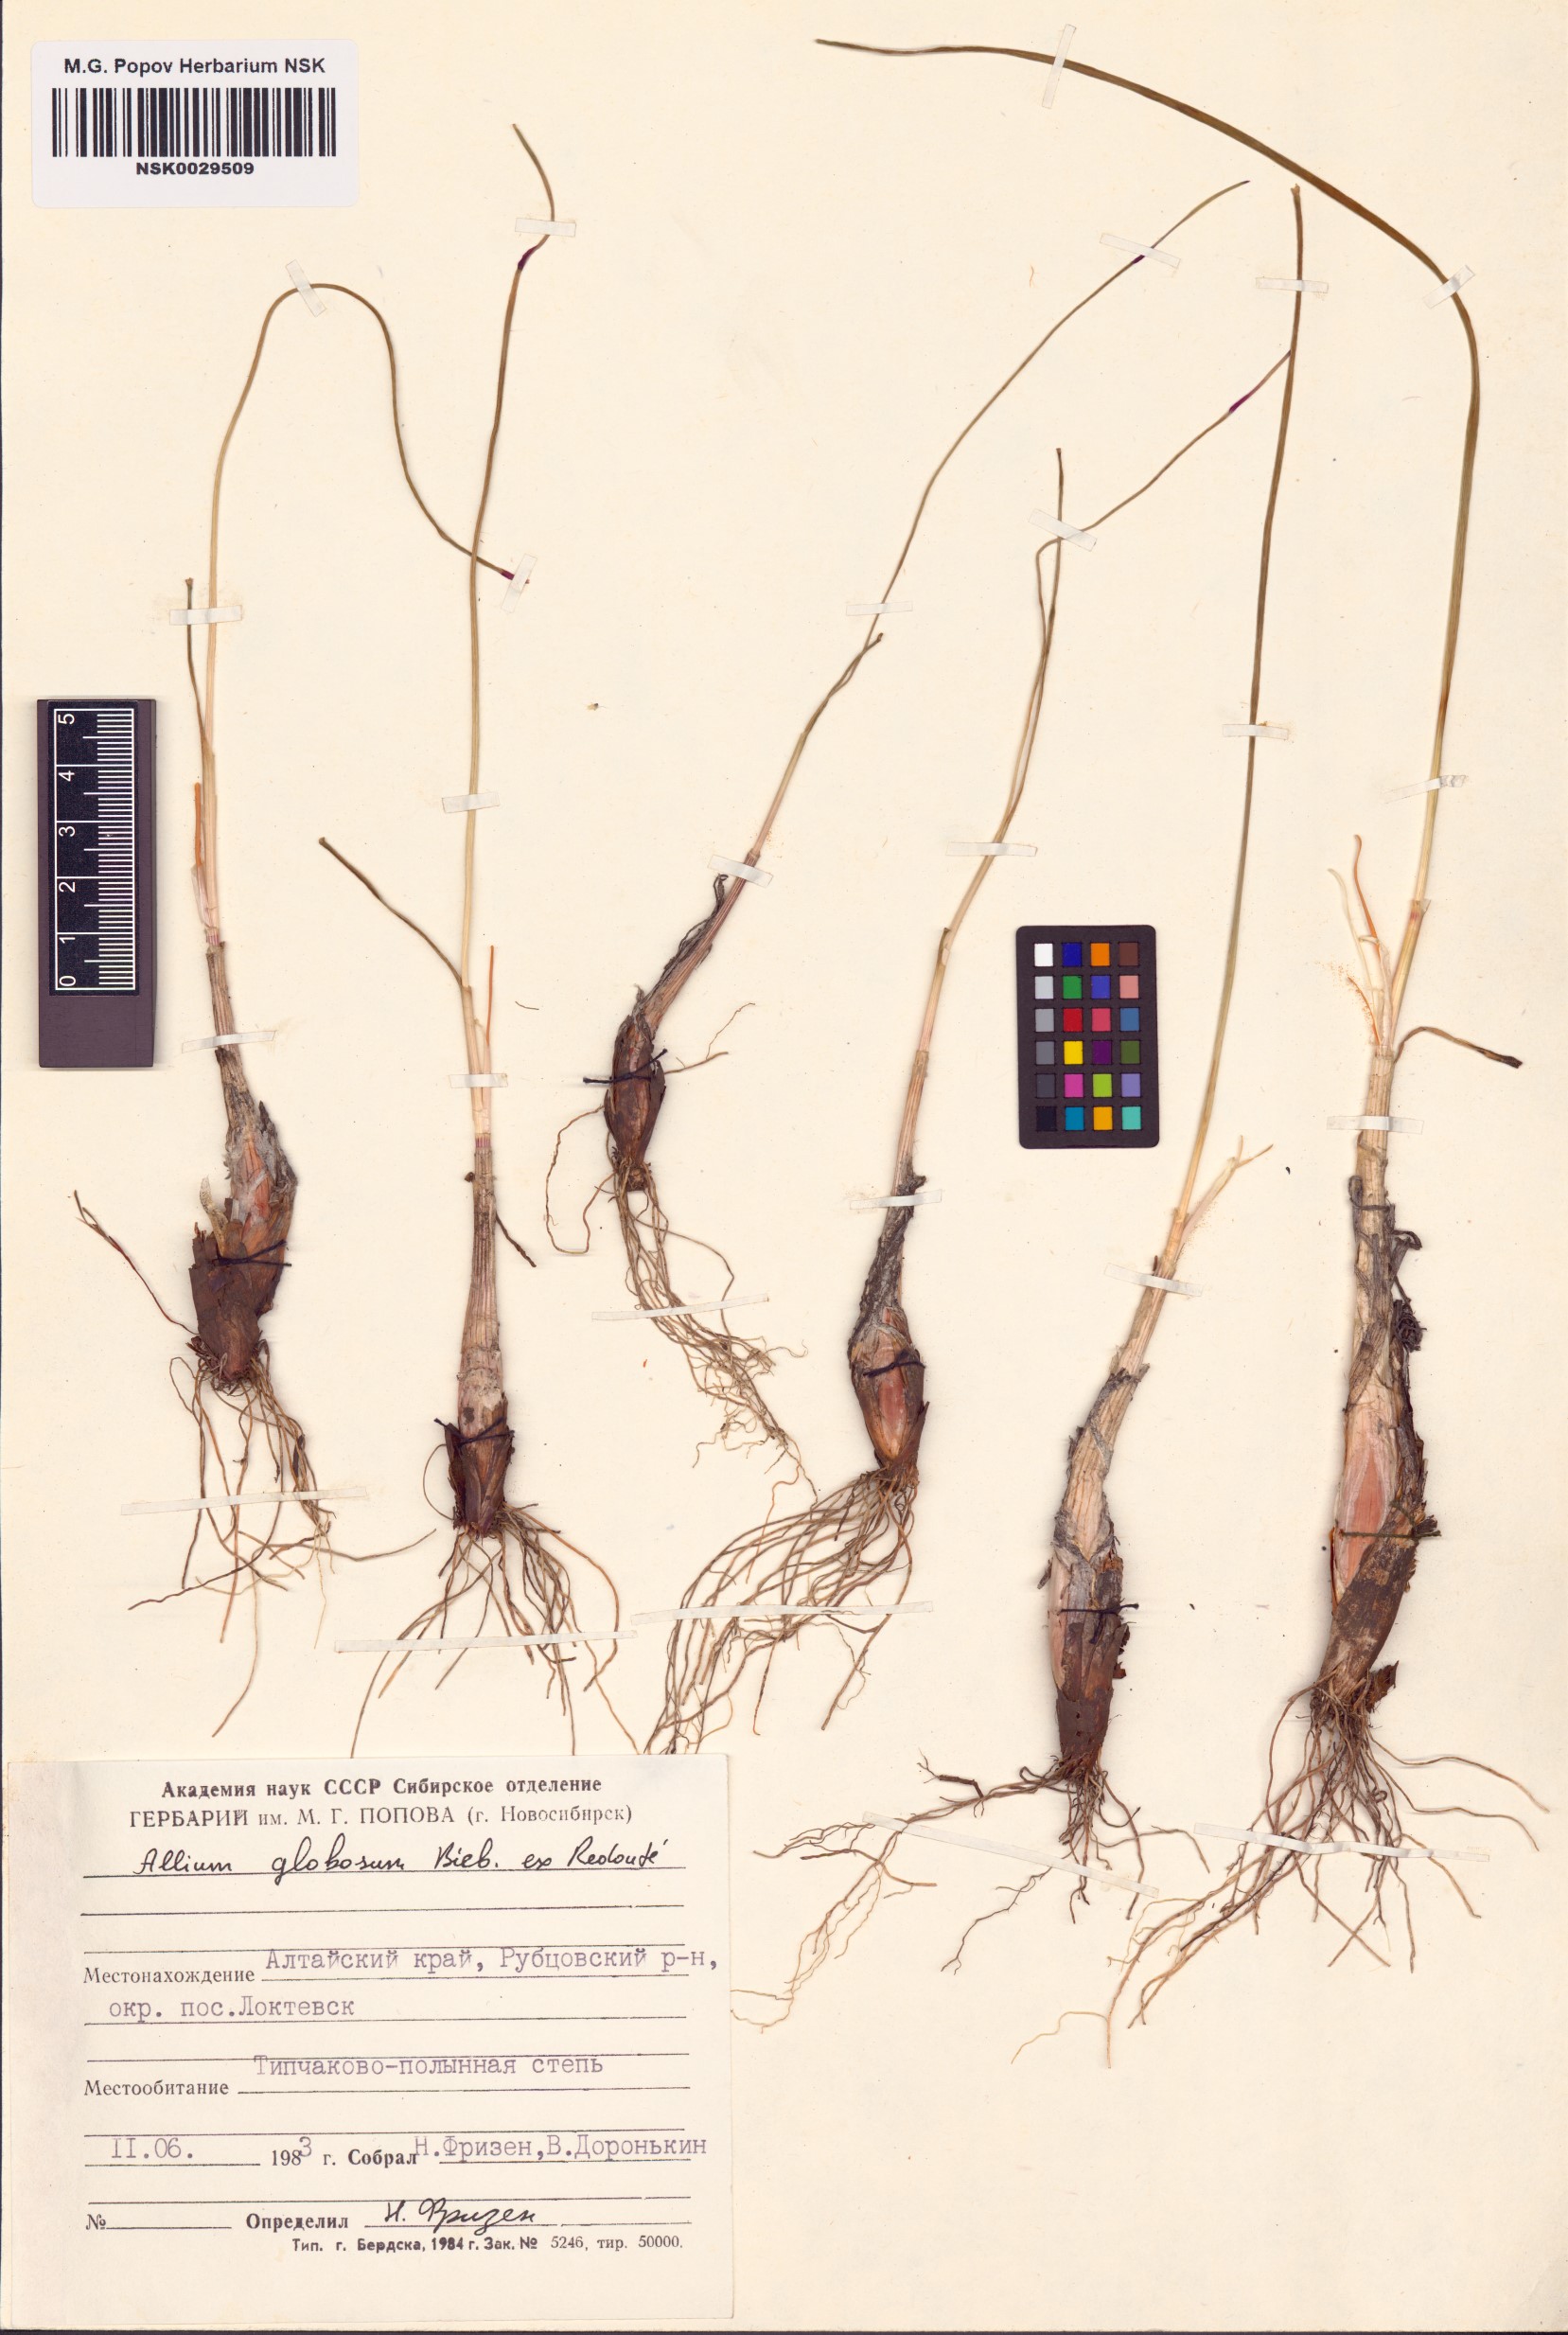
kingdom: Plantae
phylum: Tracheophyta
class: Liliopsida
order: Asparagales
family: Amaryllidaceae
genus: Allium
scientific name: Allium saxatile
